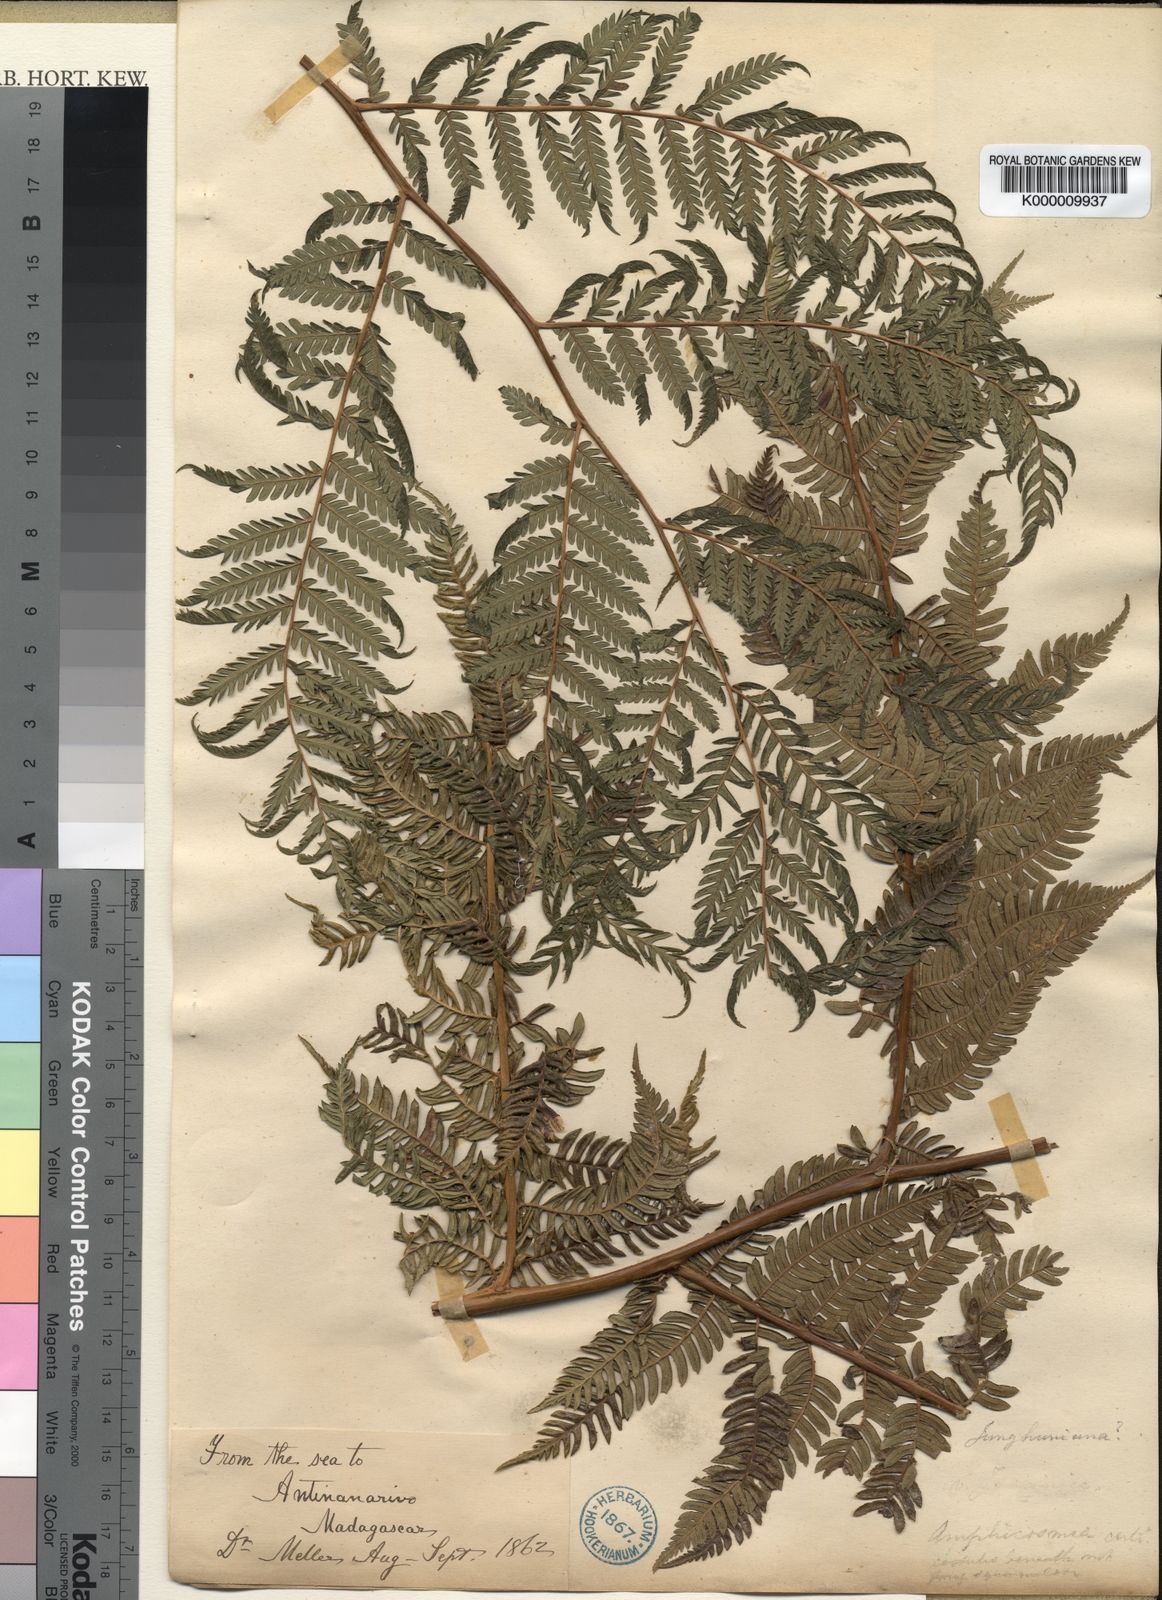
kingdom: Plantae
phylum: Tracheophyta
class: Polypodiopsida
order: Cyatheales
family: Cyatheaceae
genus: Alsophila
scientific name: Alsophila melleri
